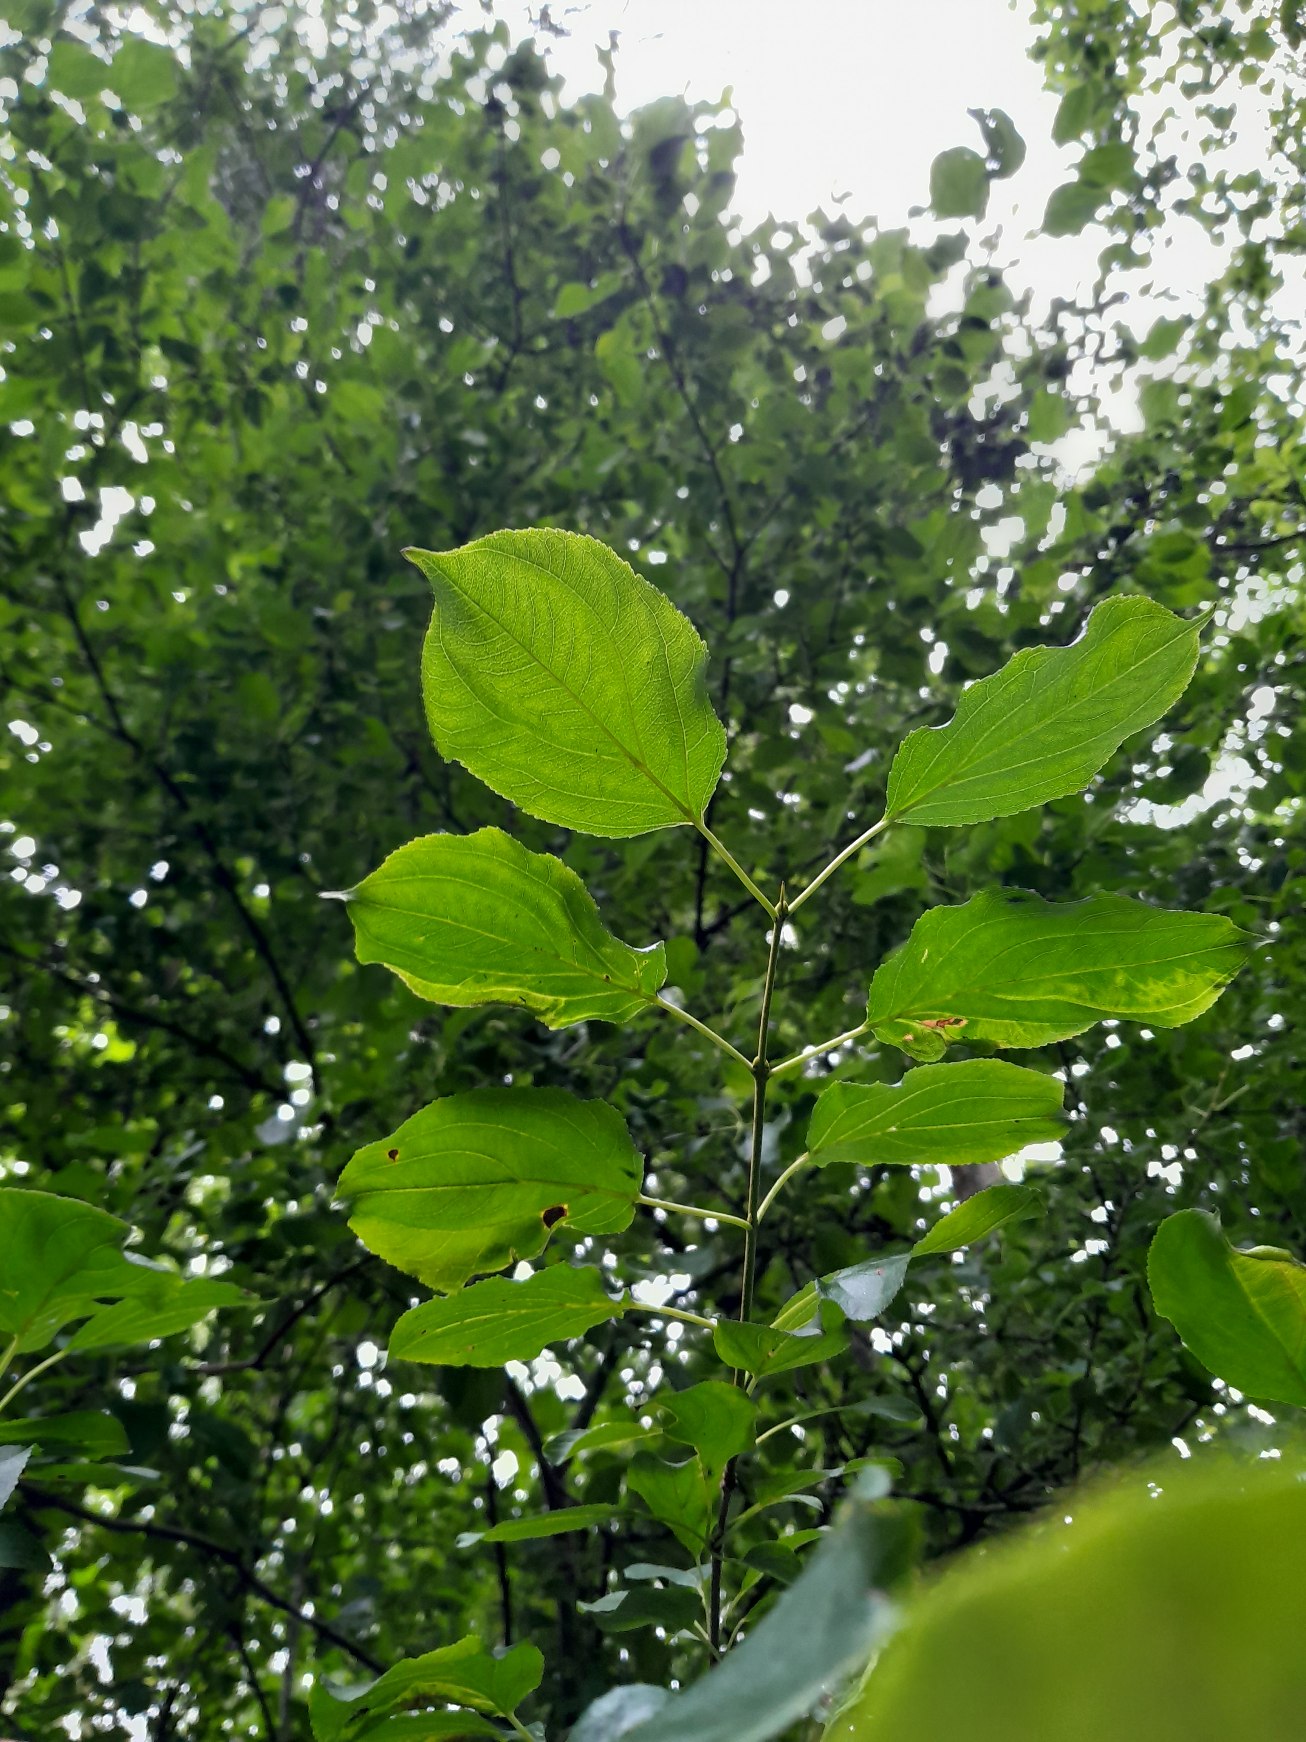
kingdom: Plantae
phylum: Tracheophyta
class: Magnoliopsida
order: Rosales
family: Rhamnaceae
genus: Rhamnus
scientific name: Rhamnus cathartica
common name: Vrietorn
